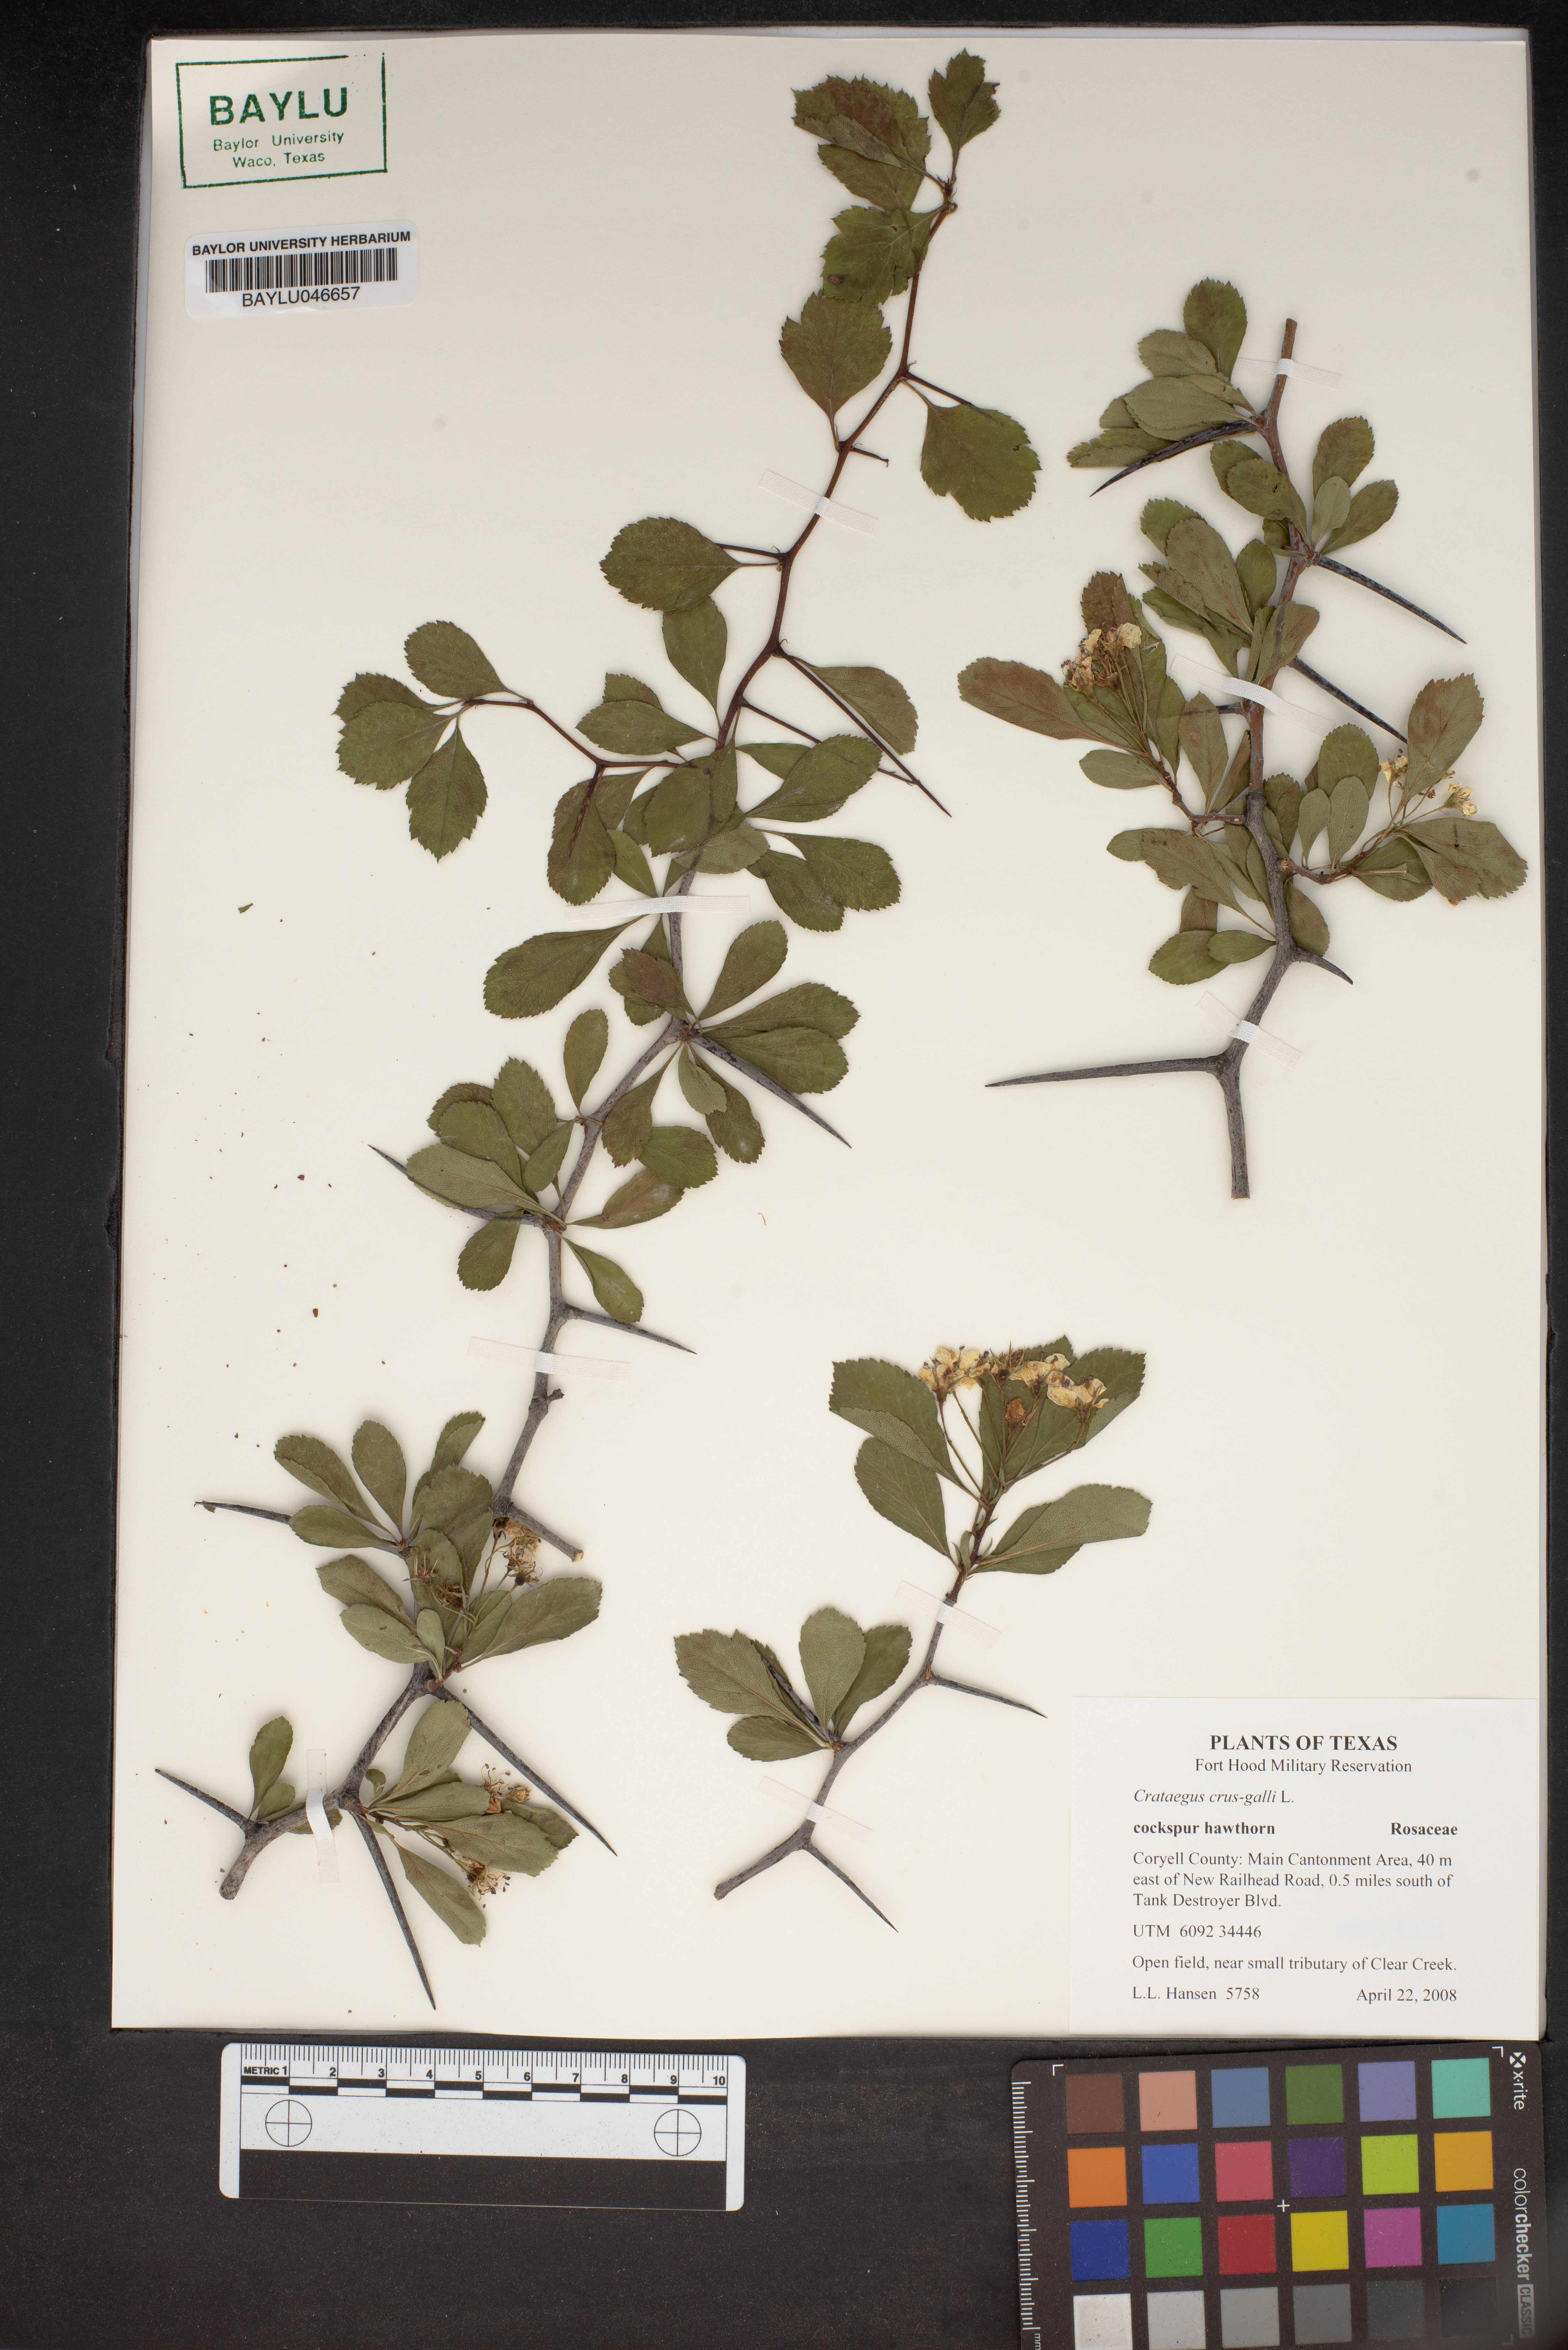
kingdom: Plantae
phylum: Tracheophyta
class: Magnoliopsida
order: Rosales
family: Rosaceae
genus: Crataegus
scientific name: Crataegus crus-galli
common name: Cockspurthorn
